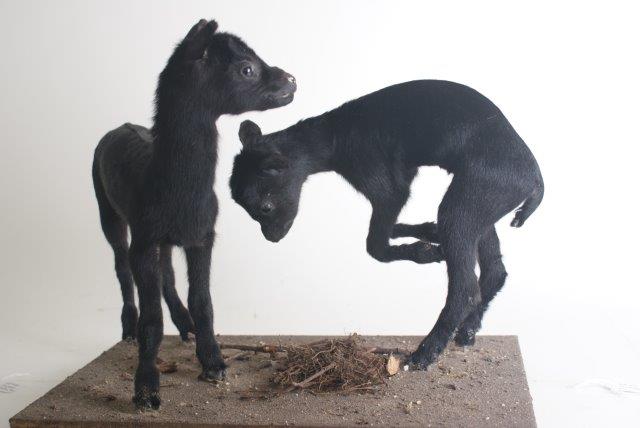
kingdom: Animalia
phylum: Chordata
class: Mammalia
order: Artiodactyla
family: Bovidae
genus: Capra
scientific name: Capra hircus
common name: Goat
